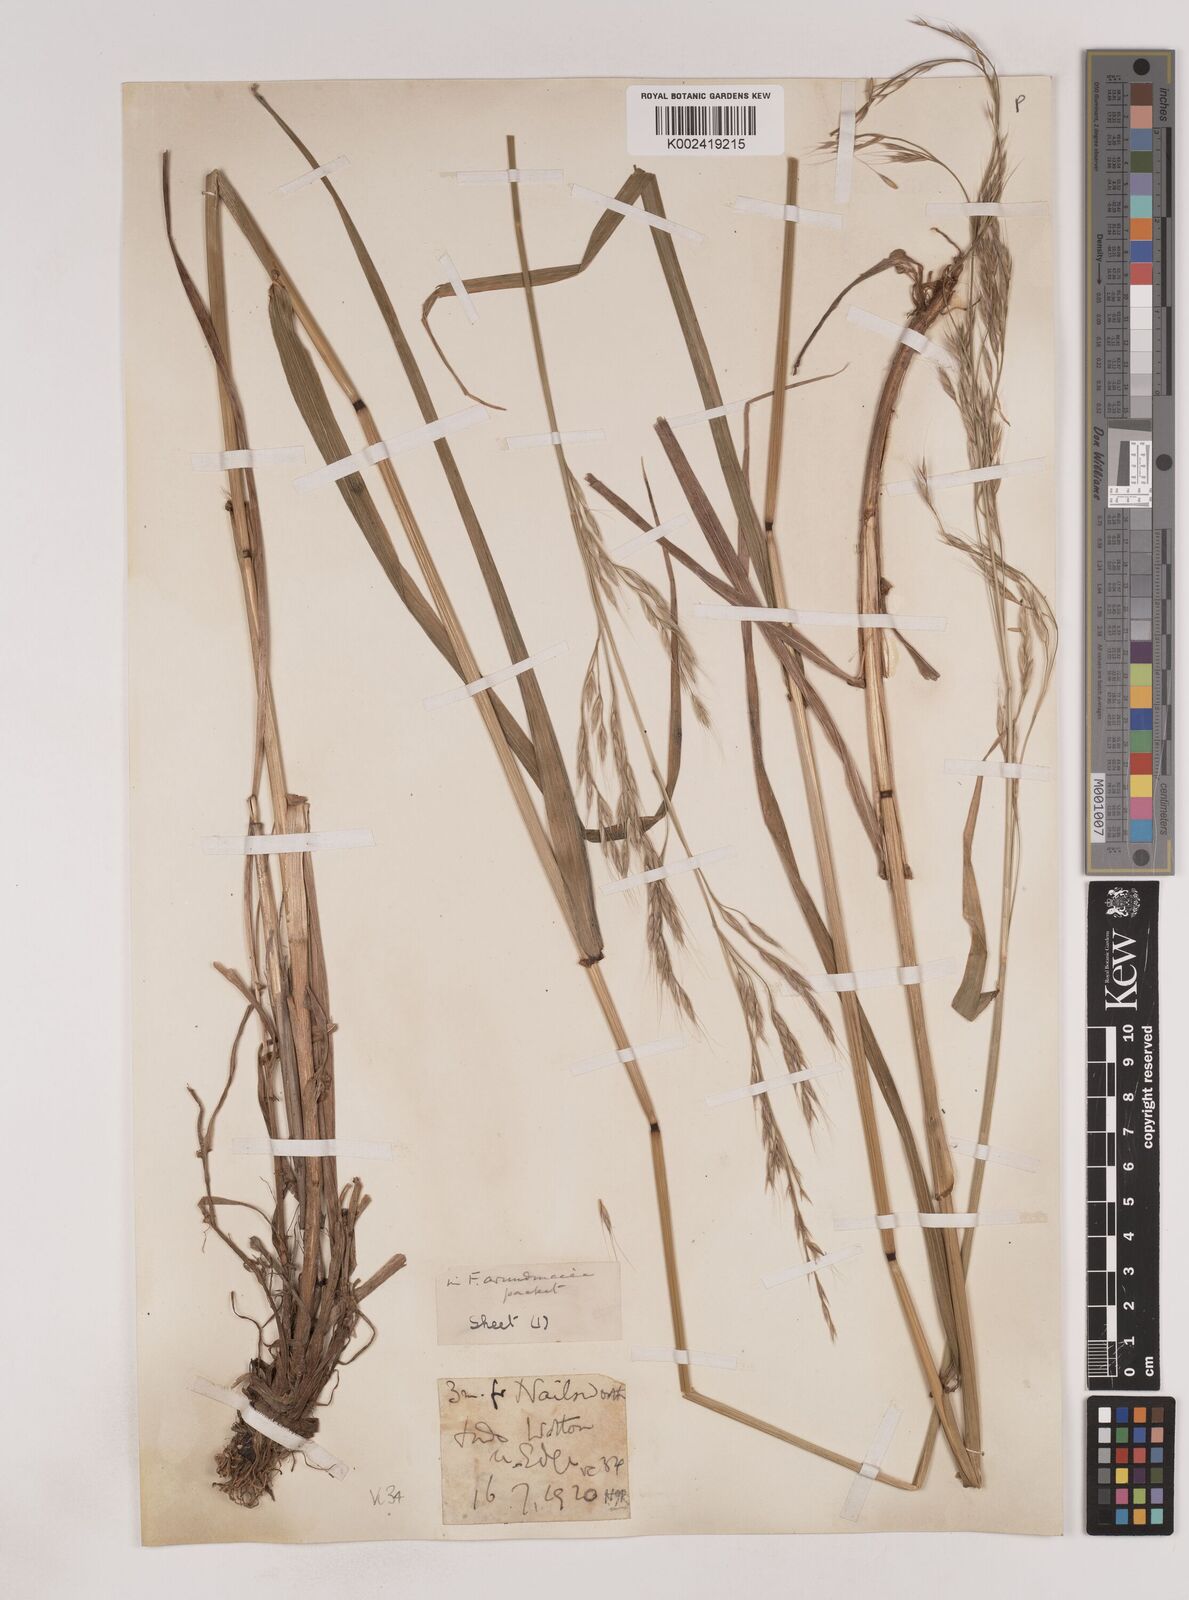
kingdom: Plantae
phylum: Tracheophyta
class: Liliopsida
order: Poales
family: Poaceae
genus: Lolium
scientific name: Lolium giganteum
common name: Giant fescue
